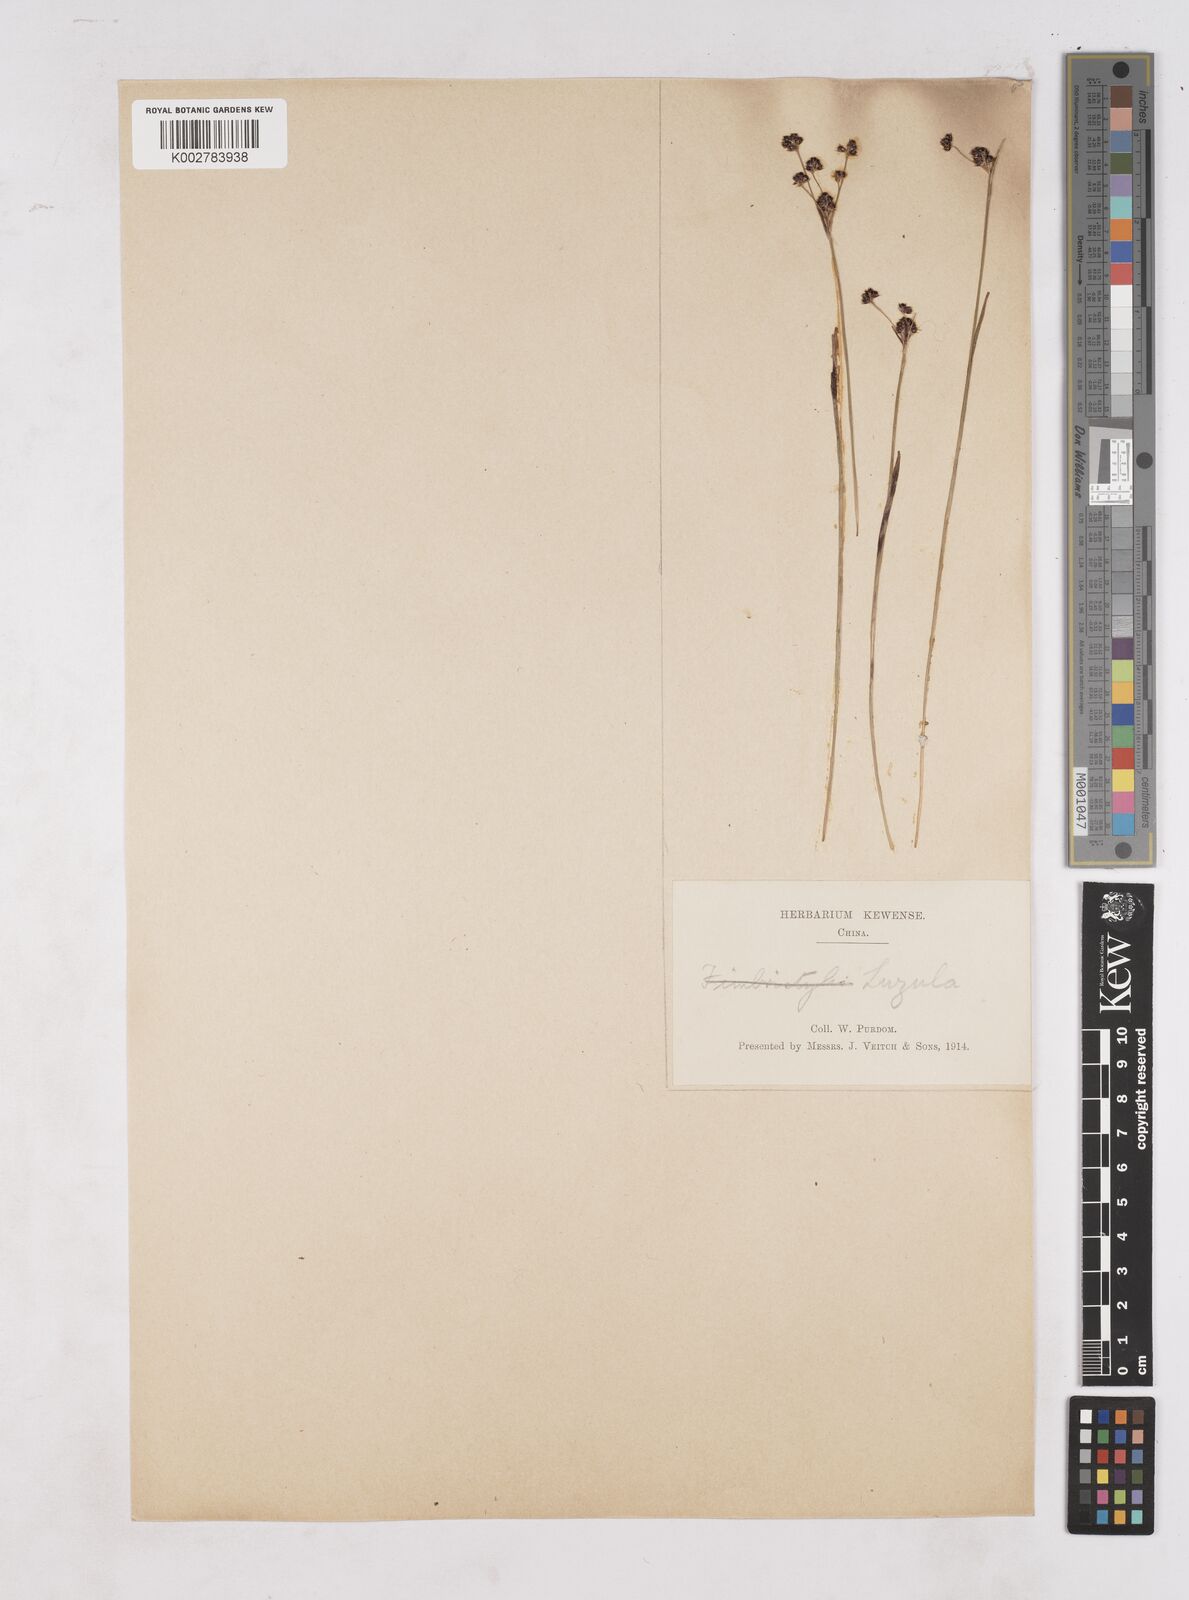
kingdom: Plantae
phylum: Tracheophyta
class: Liliopsida
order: Poales
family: Juncaceae
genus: Luzula
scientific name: Luzula campestris
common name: Field wood-rush
